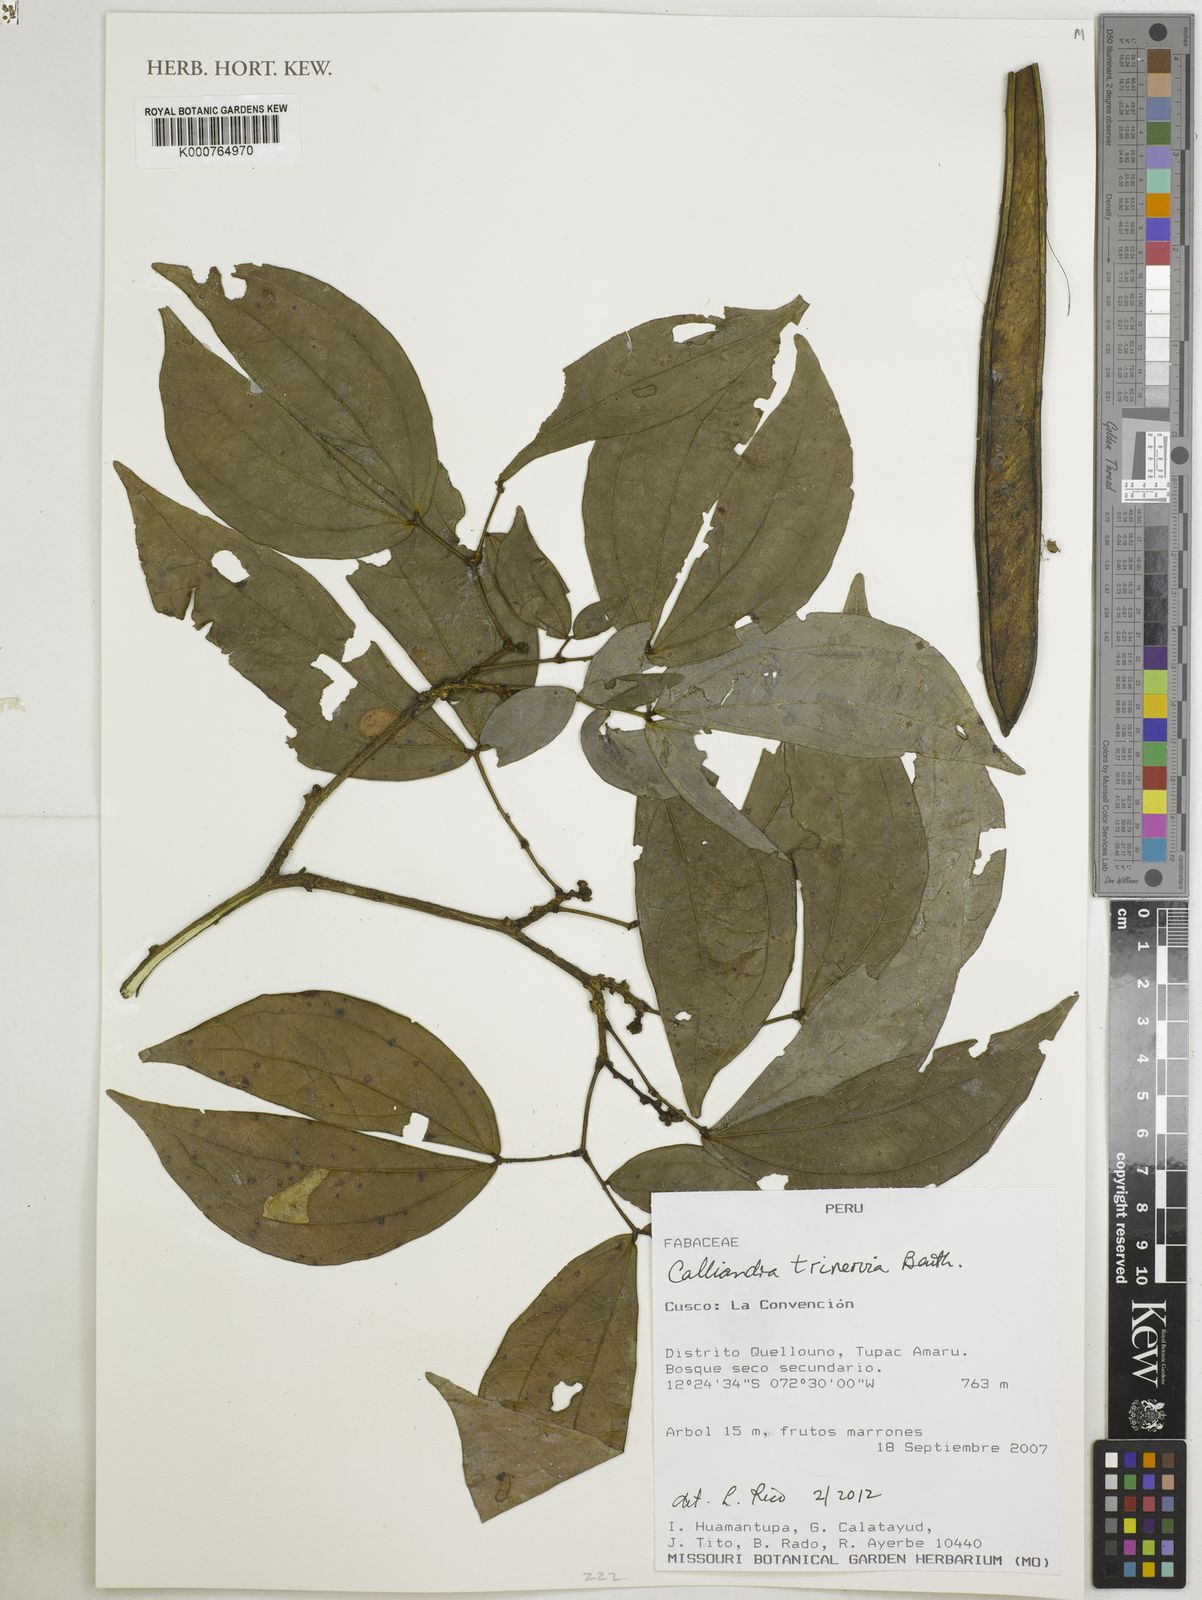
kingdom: Plantae
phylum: Tracheophyta
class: Magnoliopsida
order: Fabales
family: Fabaceae
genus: Calliandra
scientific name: Calliandra trinervia
